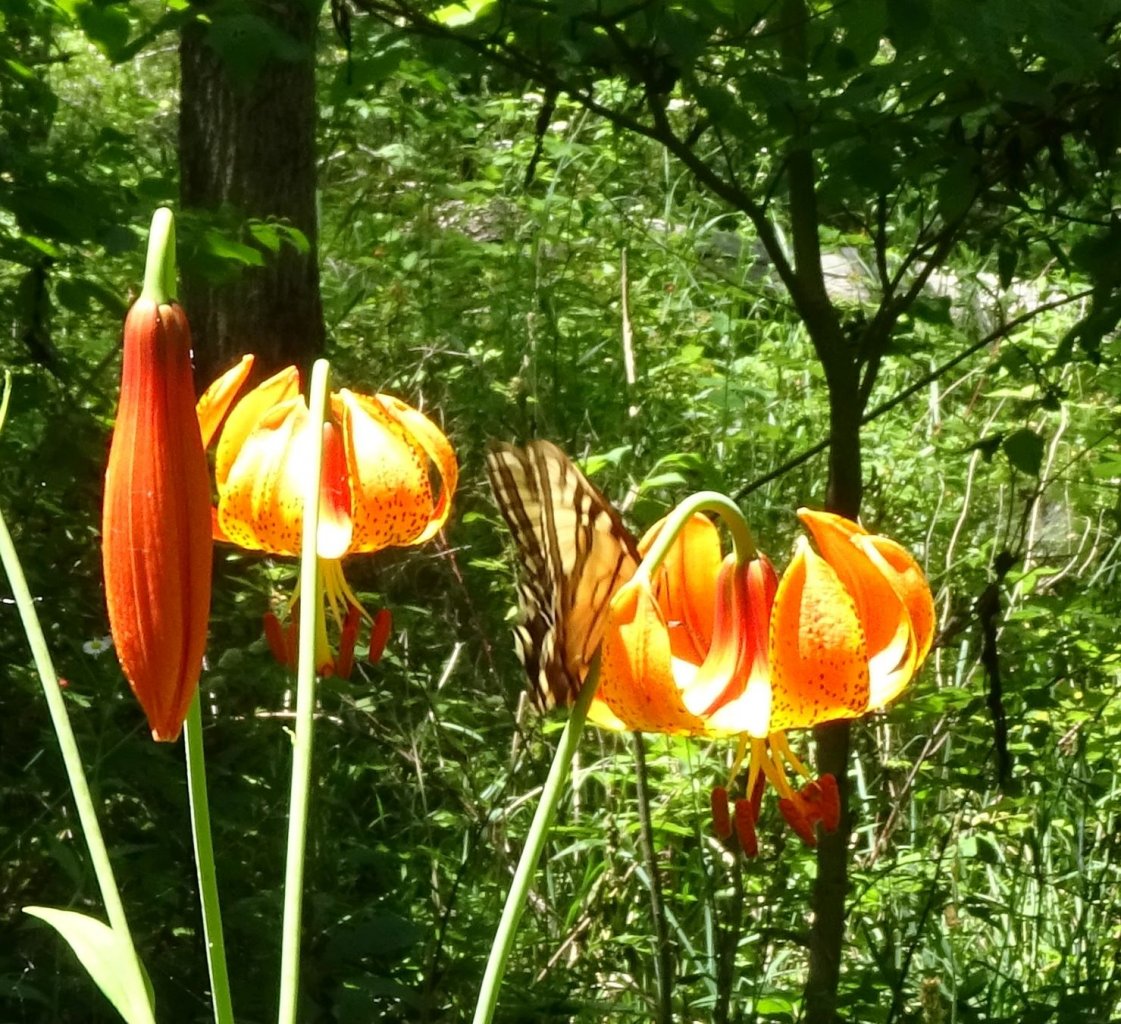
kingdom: Animalia
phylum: Arthropoda
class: Insecta
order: Lepidoptera
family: Papilionidae
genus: Pterourus
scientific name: Pterourus
